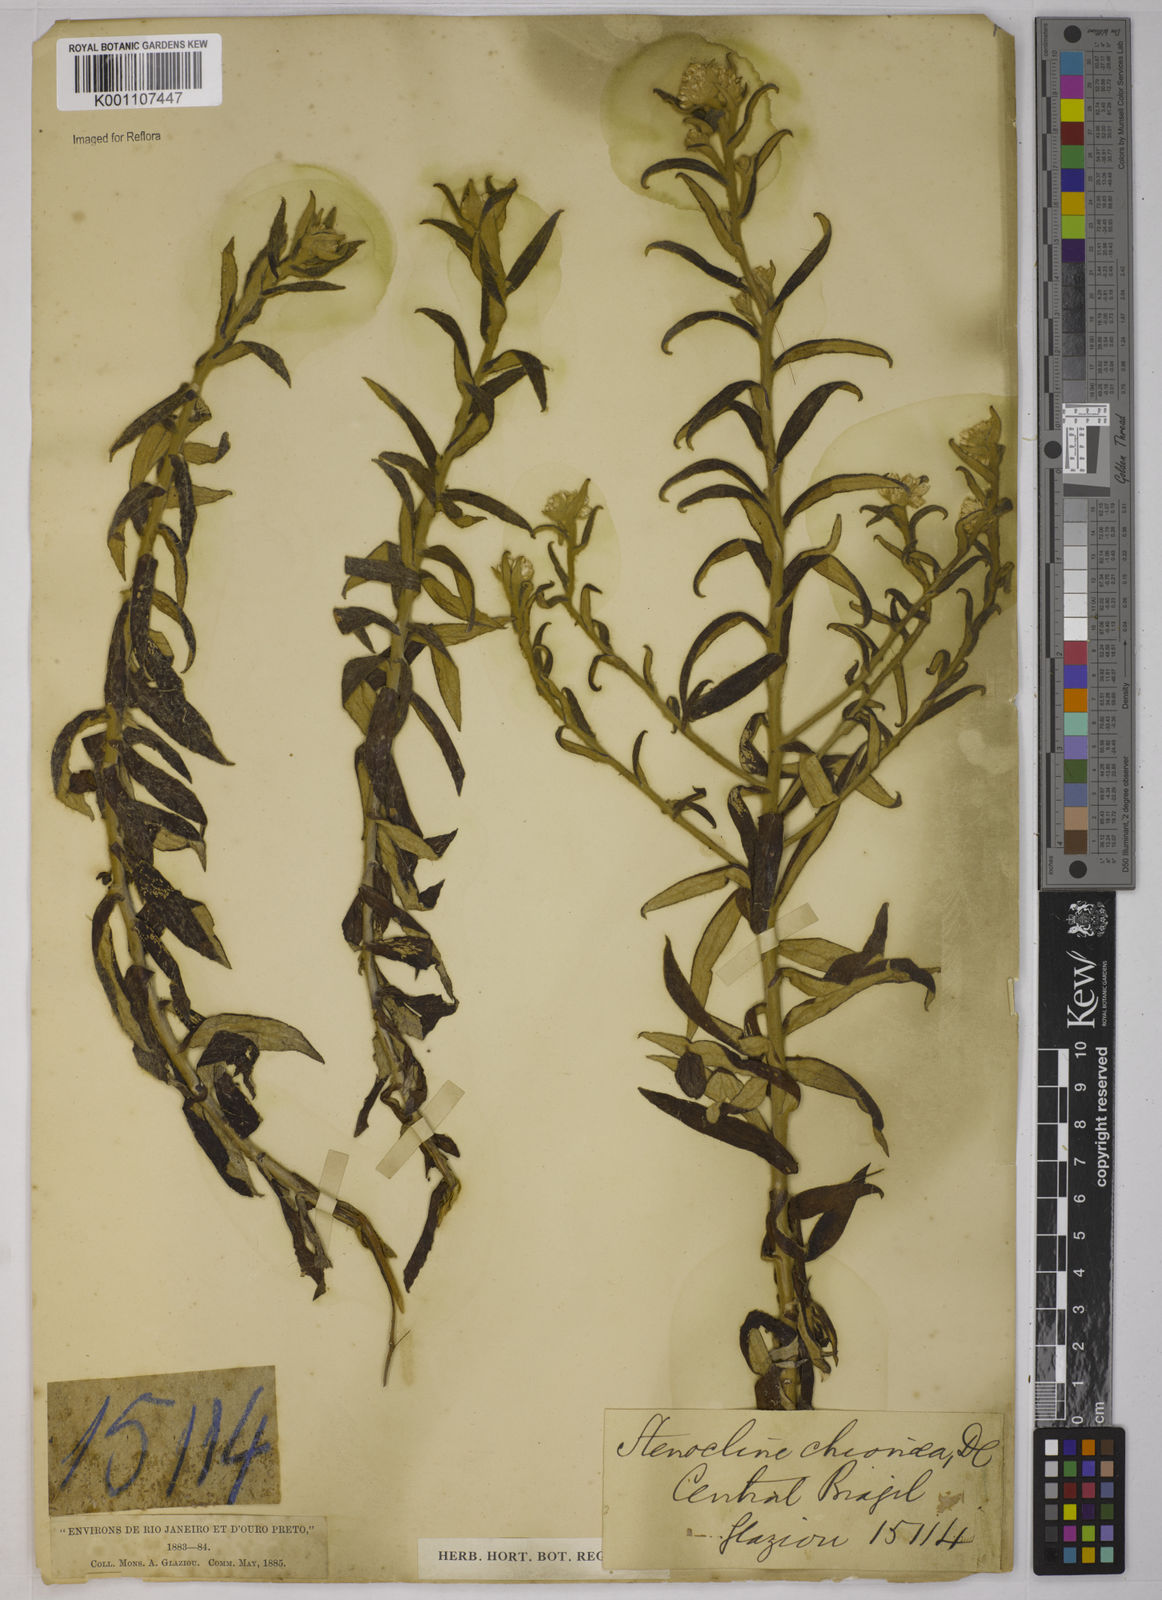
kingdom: Plantae
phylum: Tracheophyta
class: Magnoliopsida
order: Asterales
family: Asteraceae
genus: Achyrocline
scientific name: Achyrocline chionaea
